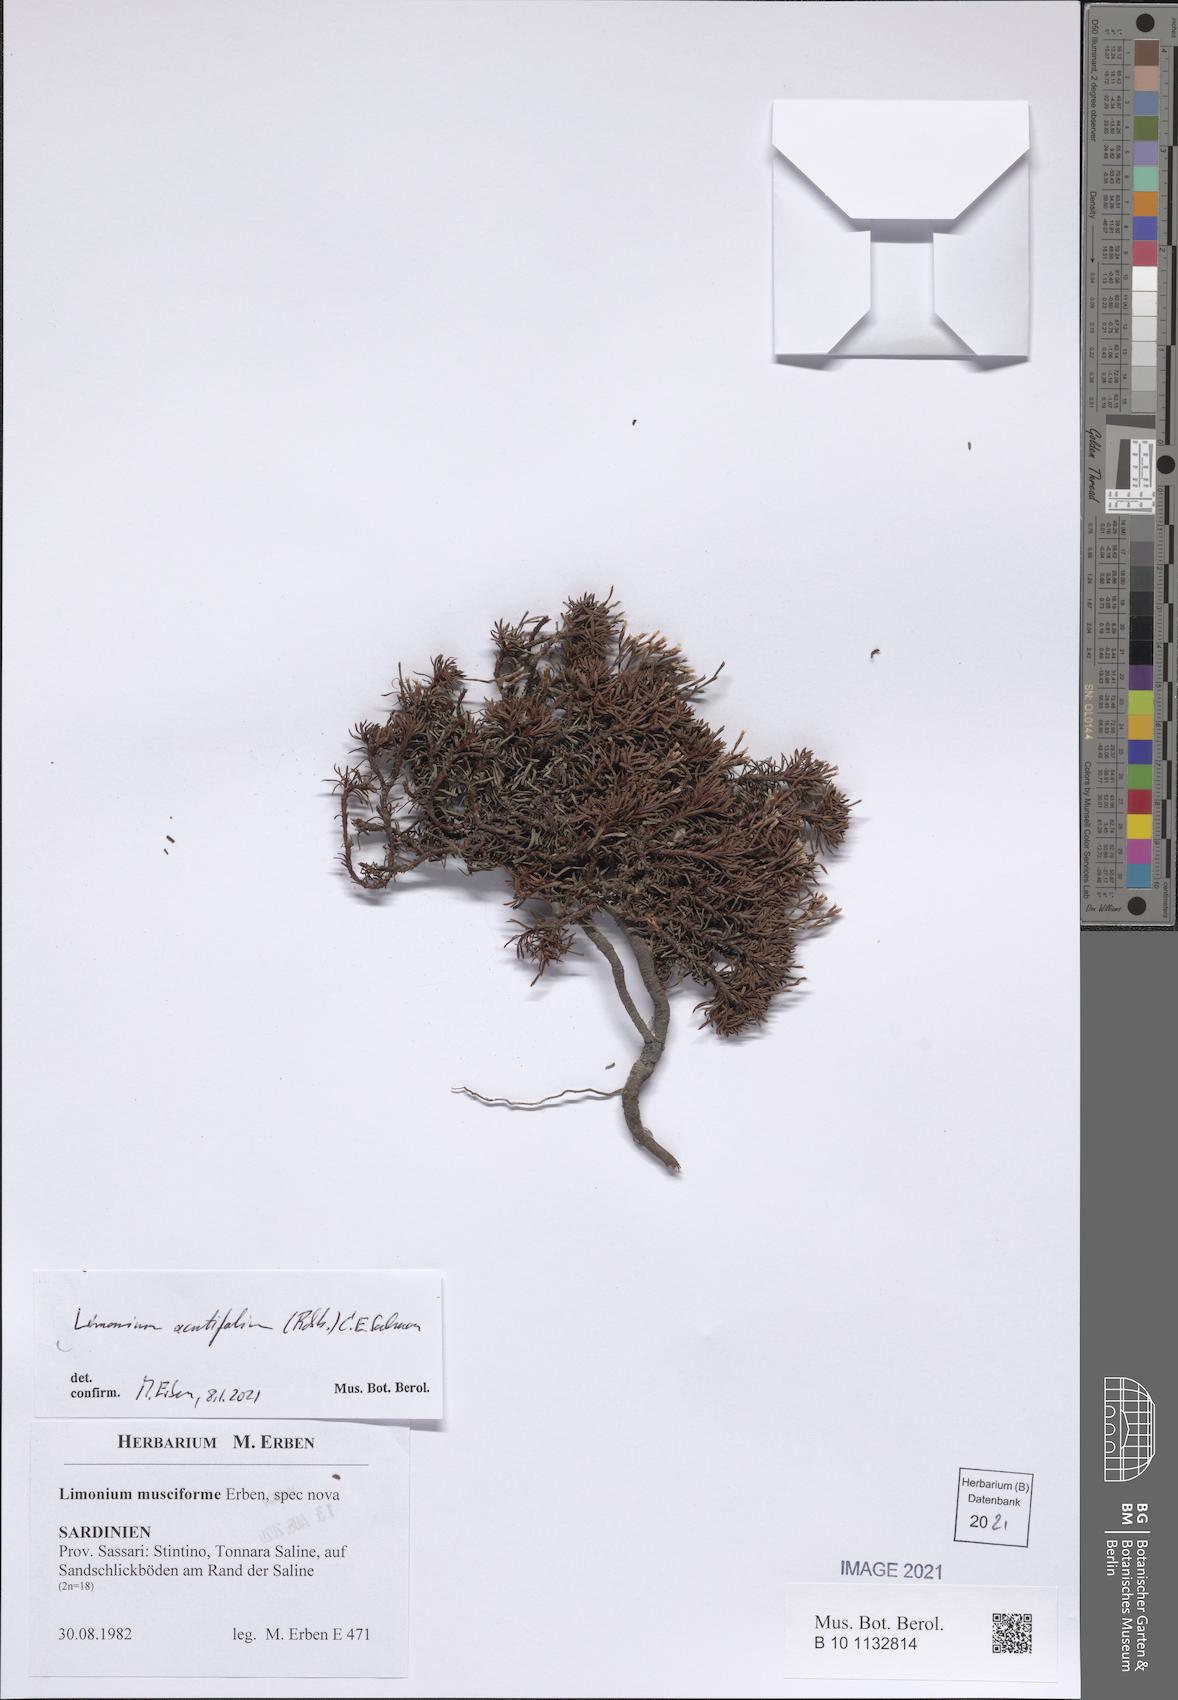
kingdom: Plantae
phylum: Tracheophyta
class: Magnoliopsida
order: Caryophyllales
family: Plumbaginaceae
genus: Limonium
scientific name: Limonium acutifolium
